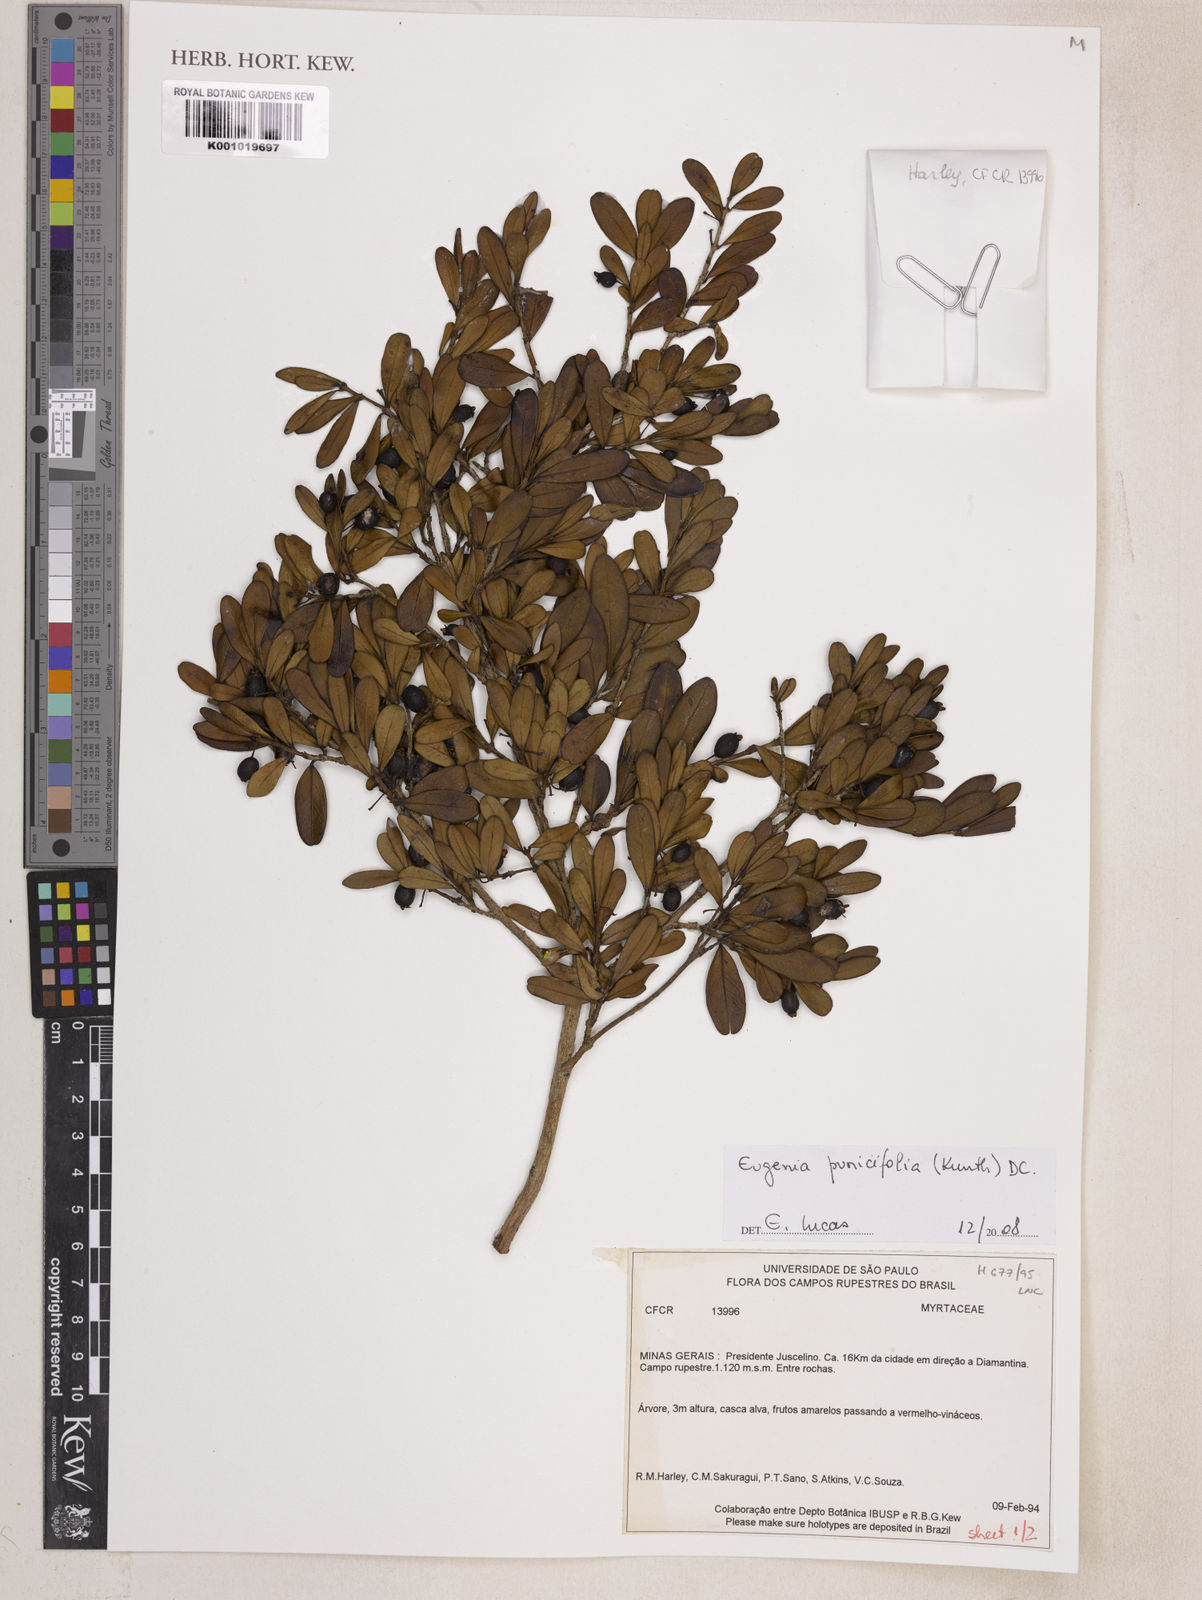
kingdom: Plantae
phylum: Tracheophyta
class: Magnoliopsida
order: Myrtales
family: Myrtaceae
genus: Eugenia
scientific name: Eugenia punicifolia
